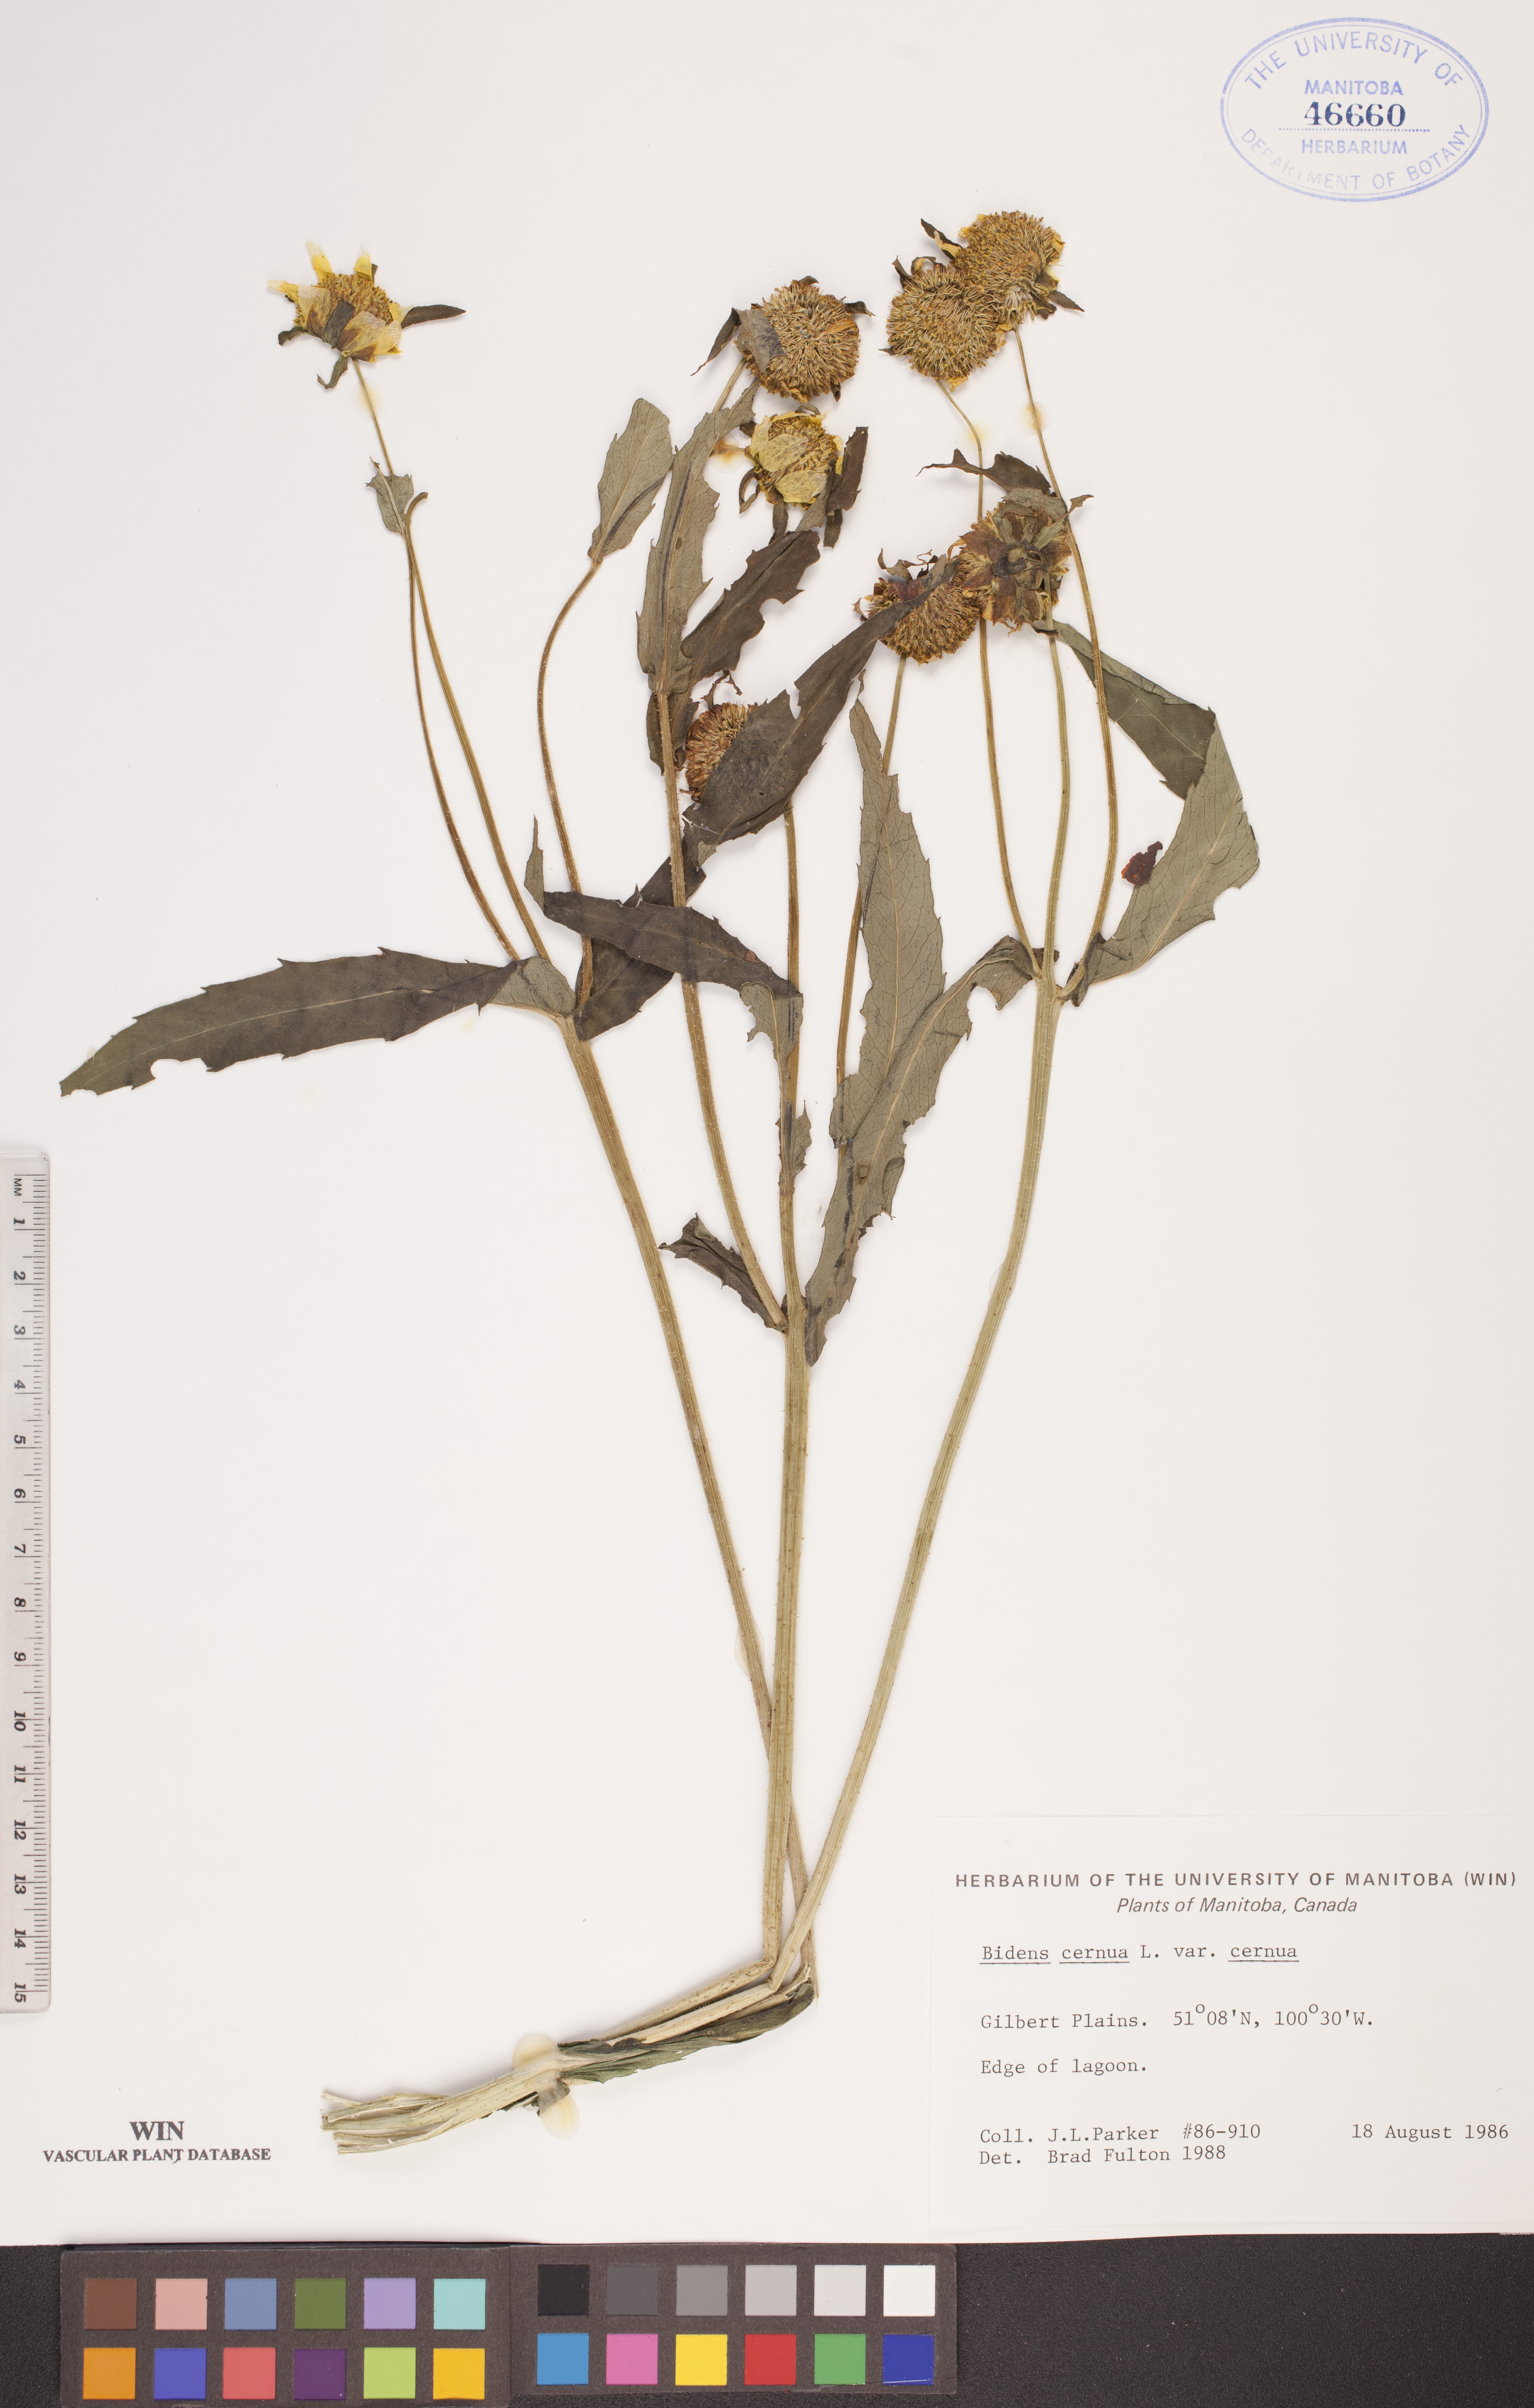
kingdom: Plantae
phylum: Tracheophyta
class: Magnoliopsida
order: Asterales
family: Asteraceae
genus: Bidens
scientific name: Bidens campylotheca
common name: Ko`oko`olau
